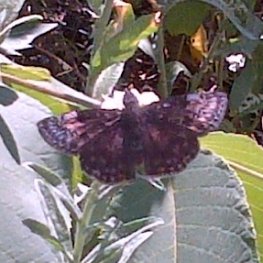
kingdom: Animalia
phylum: Arthropoda
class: Insecta
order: Lepidoptera
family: Hesperiidae
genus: Gesta
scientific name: Gesta
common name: Wild Indigo Duskywing
